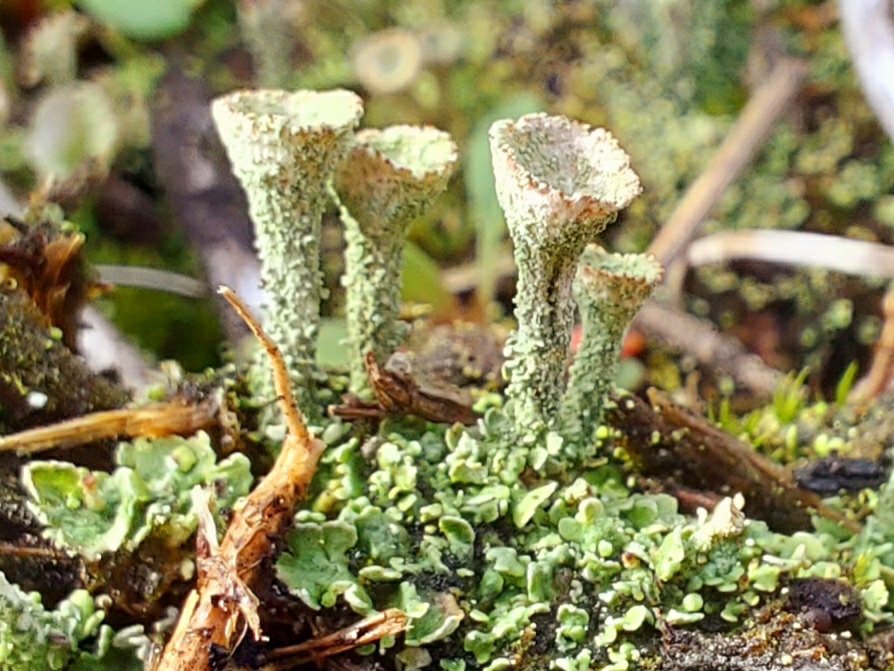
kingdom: Fungi
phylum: Ascomycota
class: Lecanoromycetes
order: Lecanorales
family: Cladoniaceae
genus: Cladonia
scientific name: Cladonia
